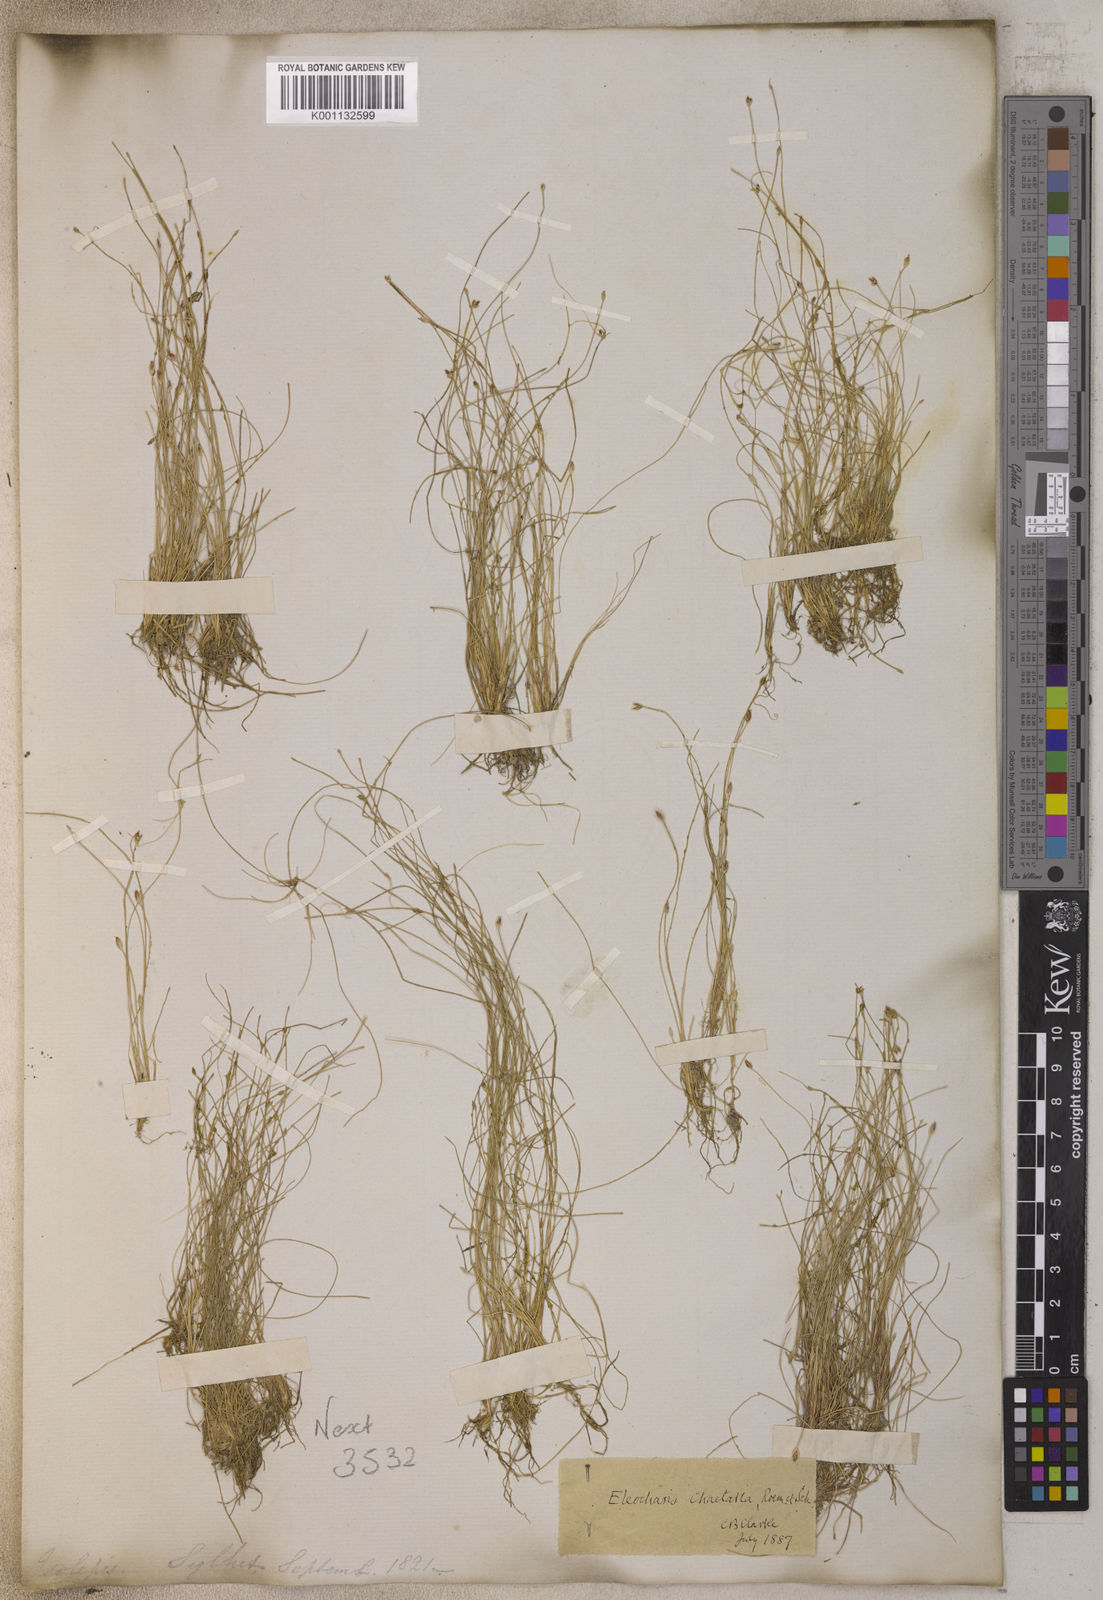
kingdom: Plantae
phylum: Tracheophyta
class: Liliopsida
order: Poales
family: Cyperaceae
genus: Eleocharis
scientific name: Eleocharis retroflexa
